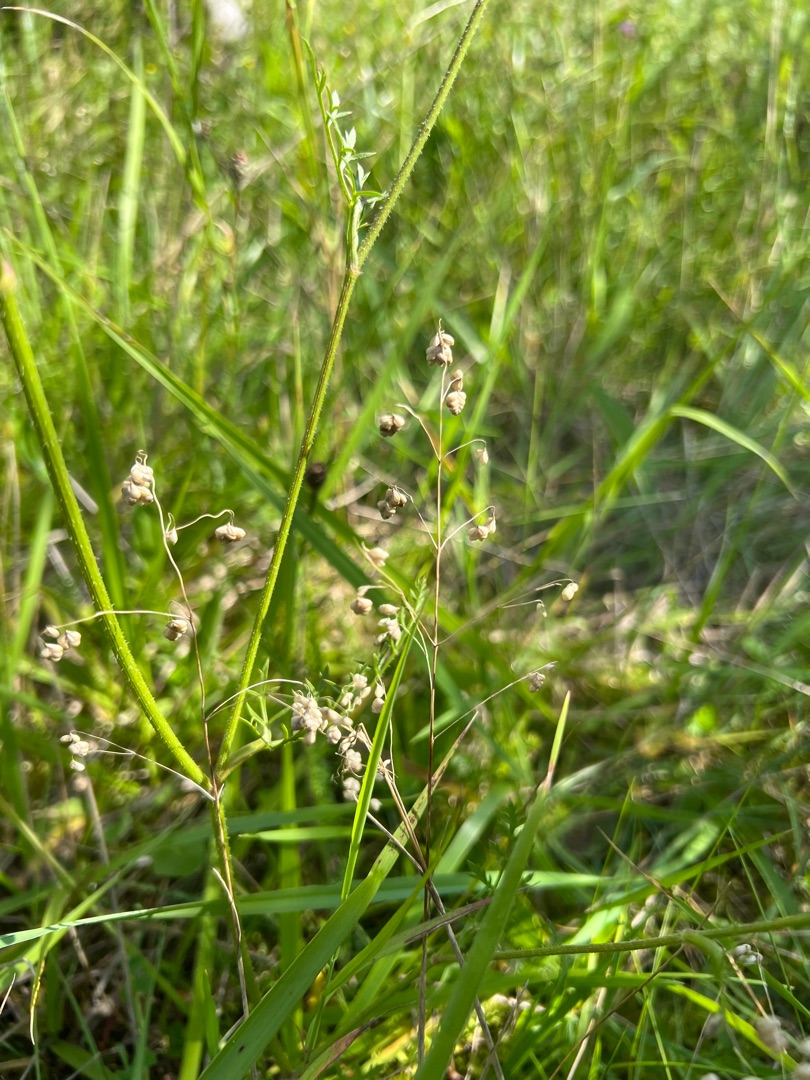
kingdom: Plantae
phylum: Tracheophyta
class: Liliopsida
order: Poales
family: Poaceae
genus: Briza
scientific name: Briza media
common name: Hjertegræs
